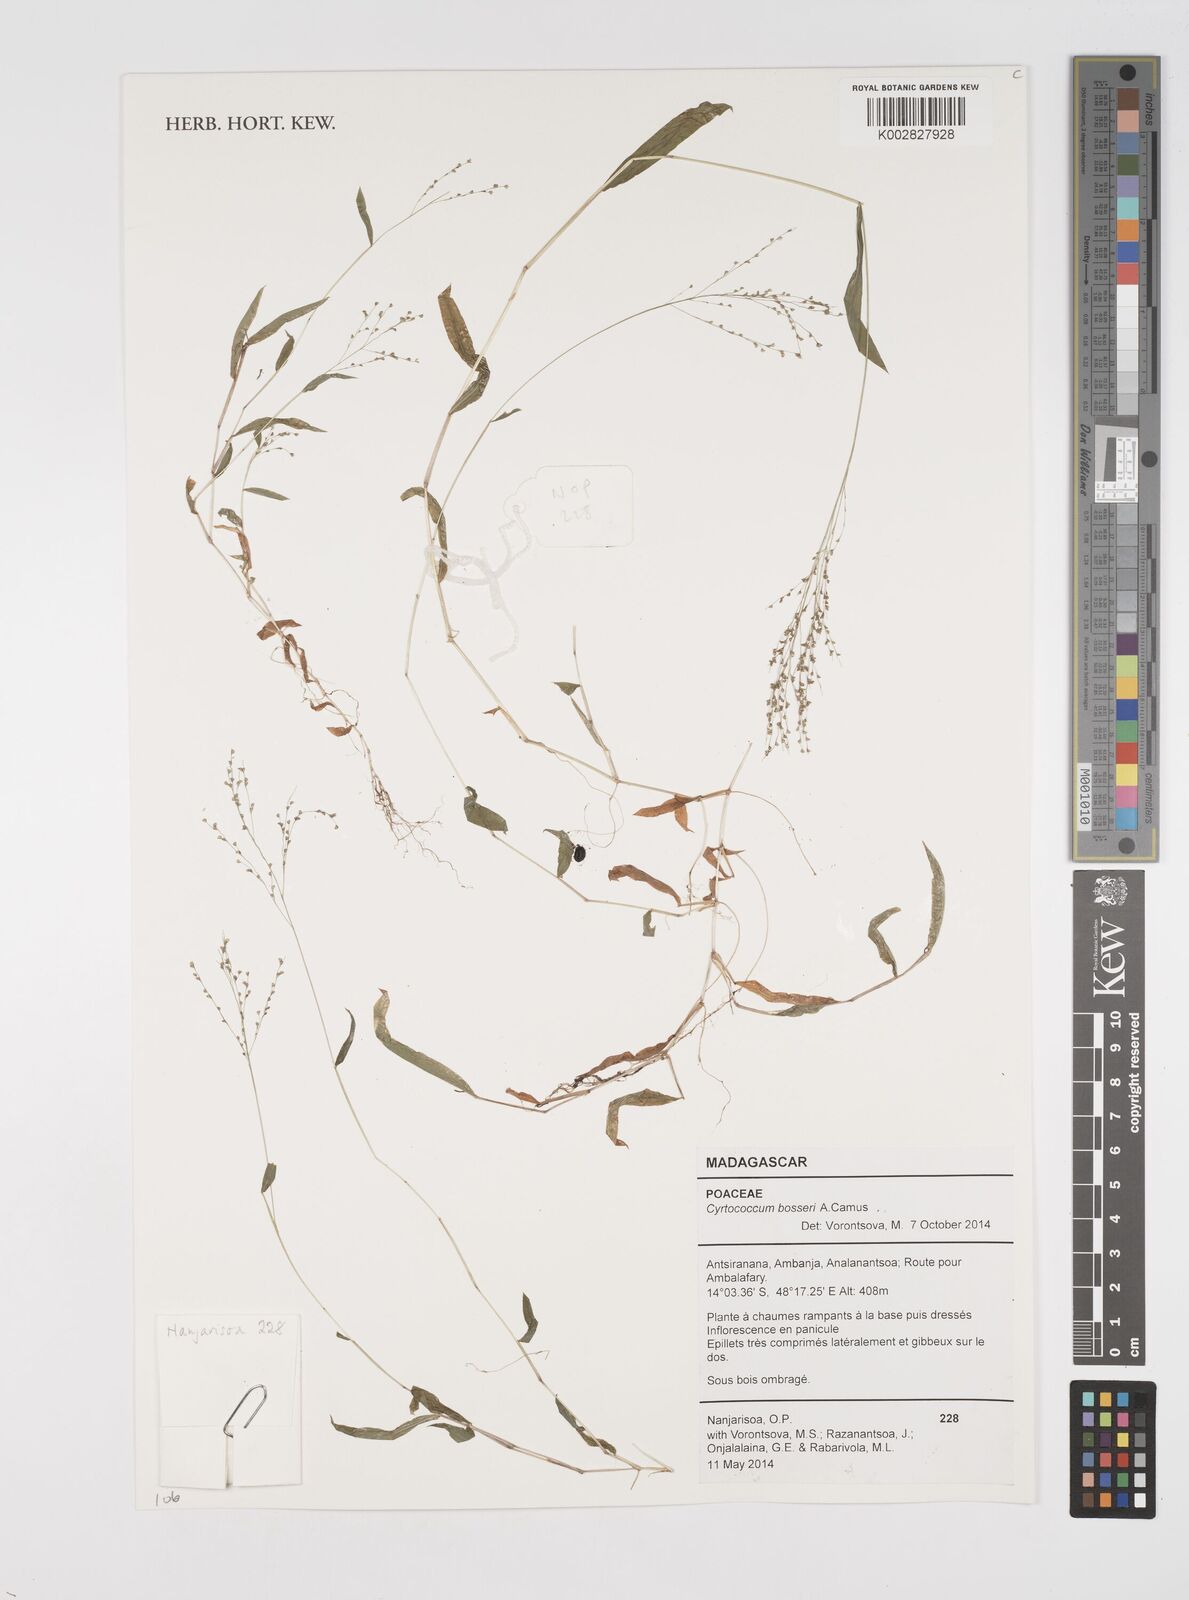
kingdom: Plantae
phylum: Tracheophyta
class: Liliopsida
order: Poales
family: Poaceae
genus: Cyrtococcum
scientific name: Cyrtococcum bosseri
